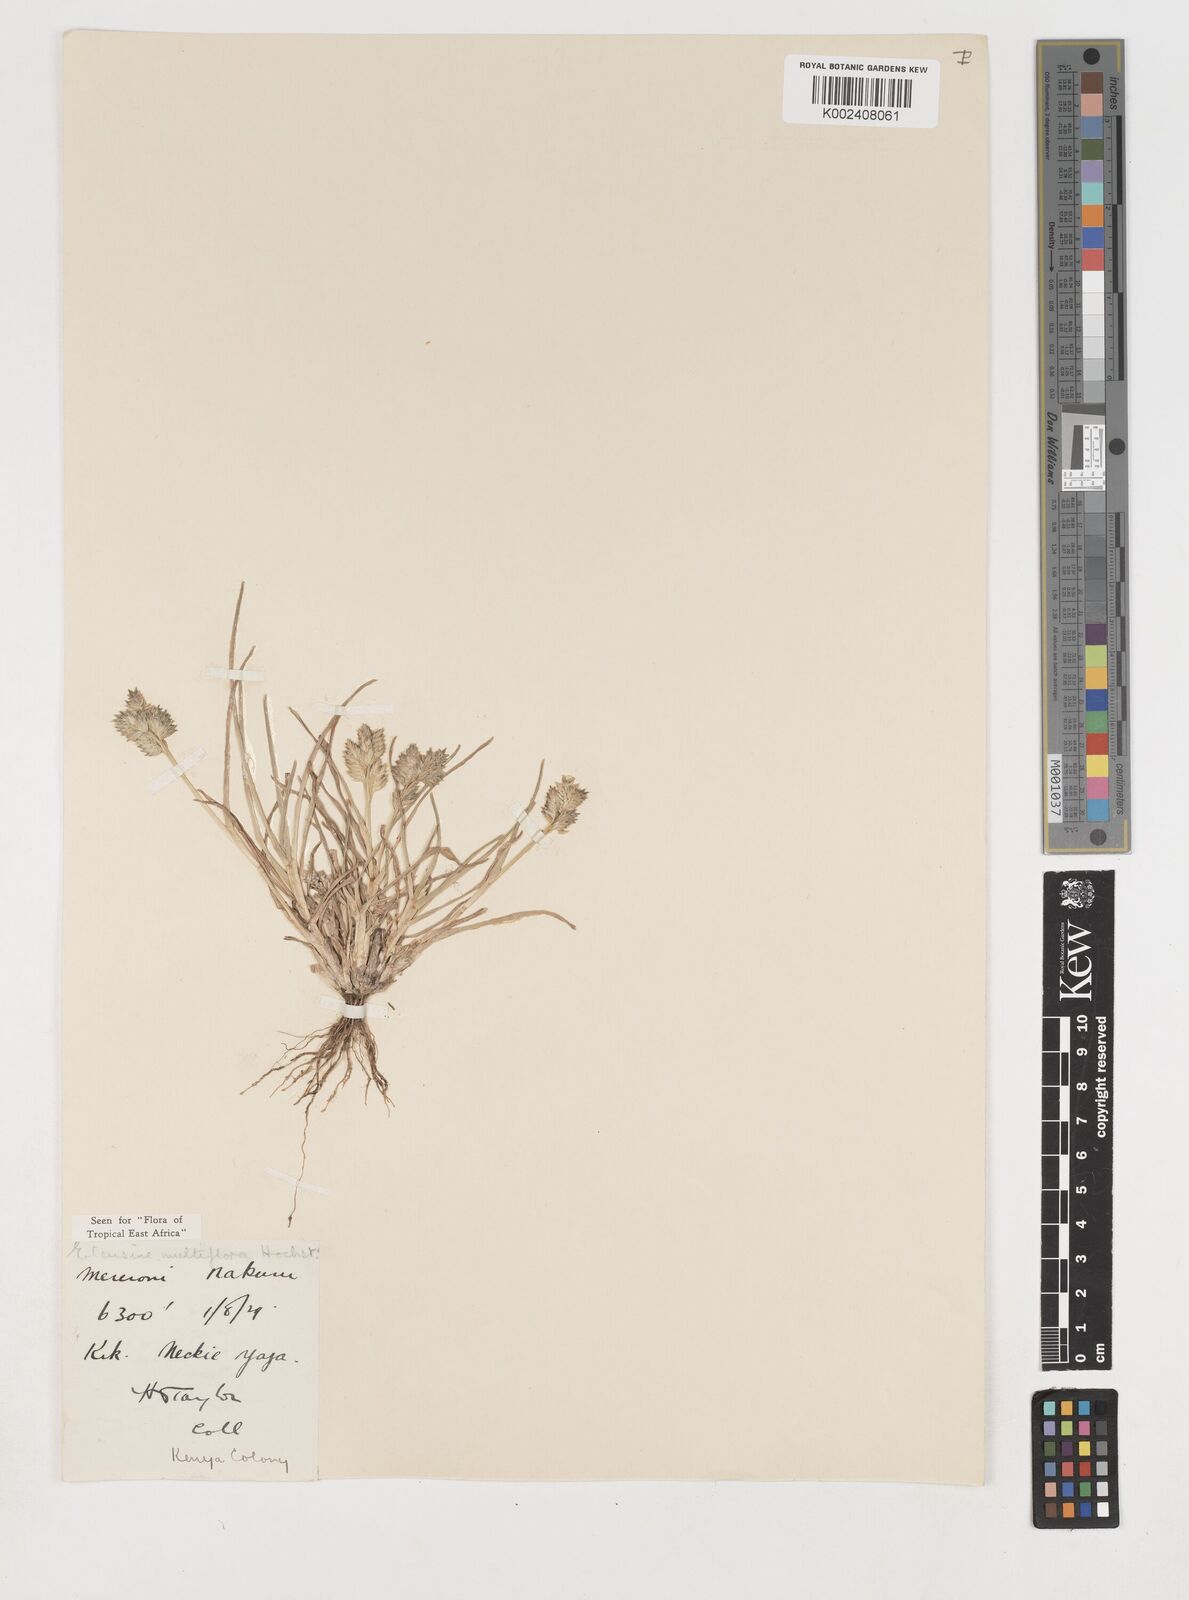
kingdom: Plantae
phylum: Tracheophyta
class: Liliopsida
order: Poales
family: Poaceae
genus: Eleusine
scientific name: Eleusine multiflora
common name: Fat-spiked yard-grass
